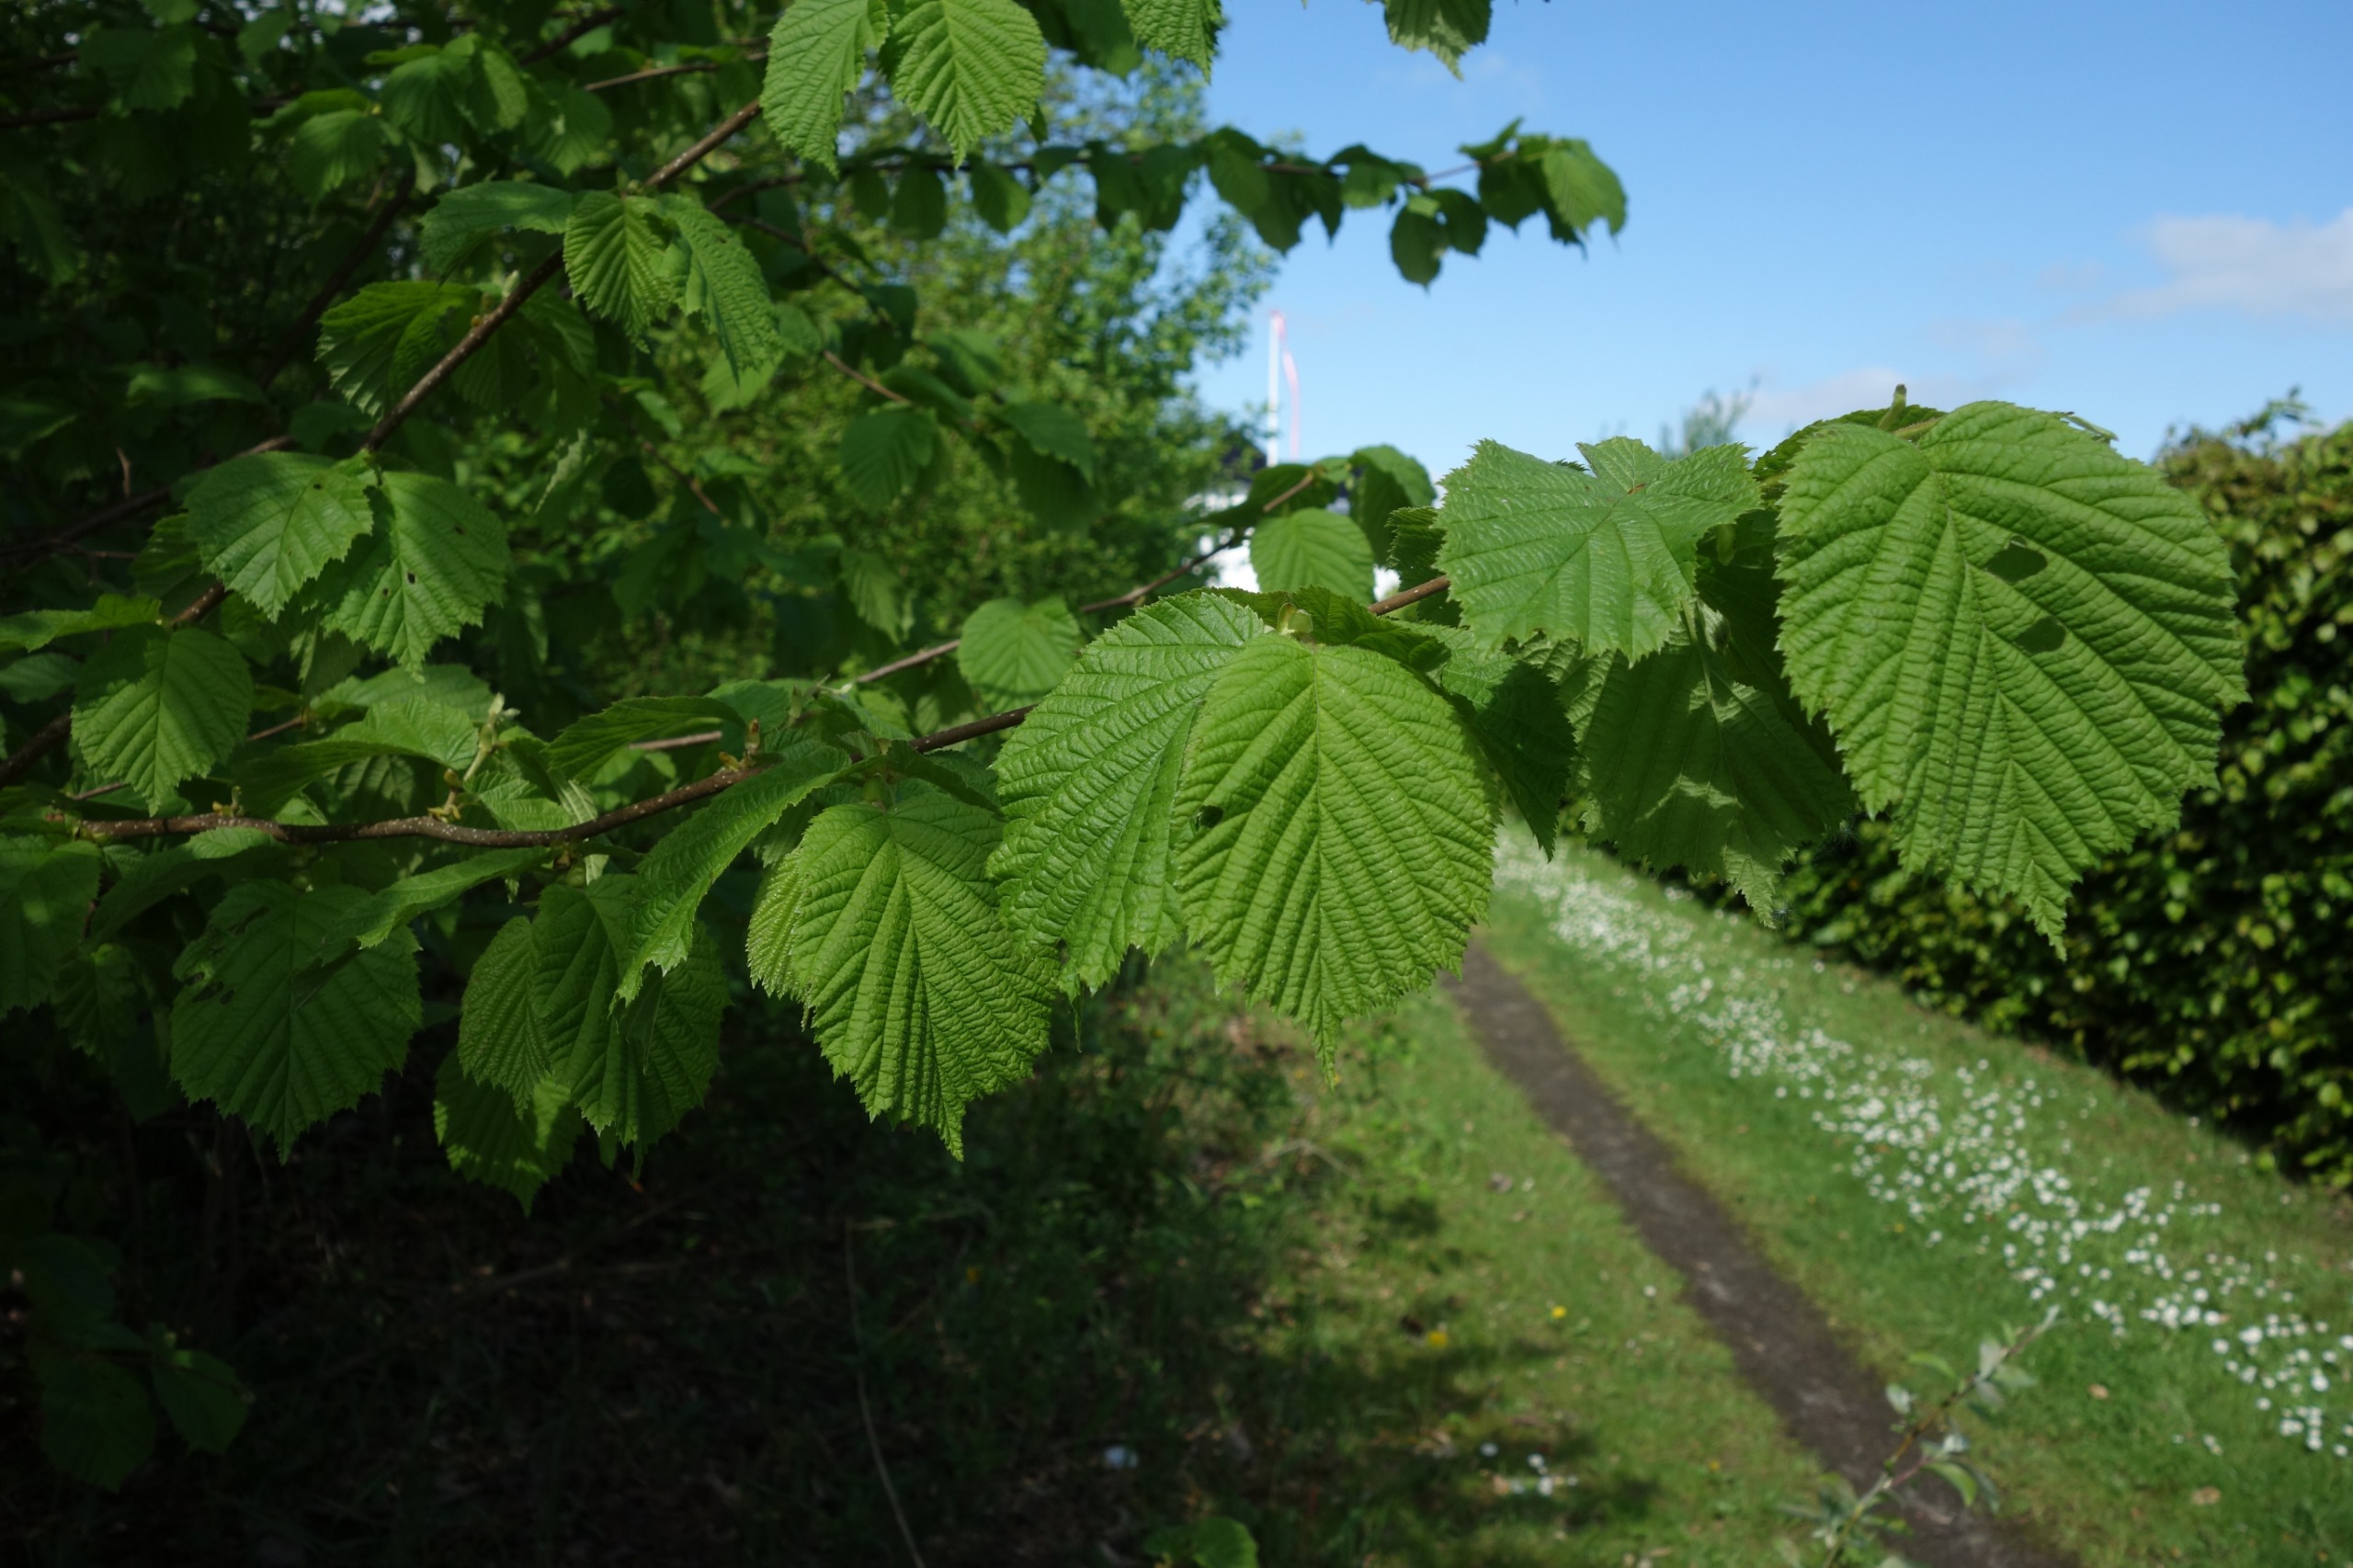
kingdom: Plantae
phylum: Tracheophyta
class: Magnoliopsida
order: Fagales
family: Betulaceae
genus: Corylus
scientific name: Corylus avellana
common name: Hassel
